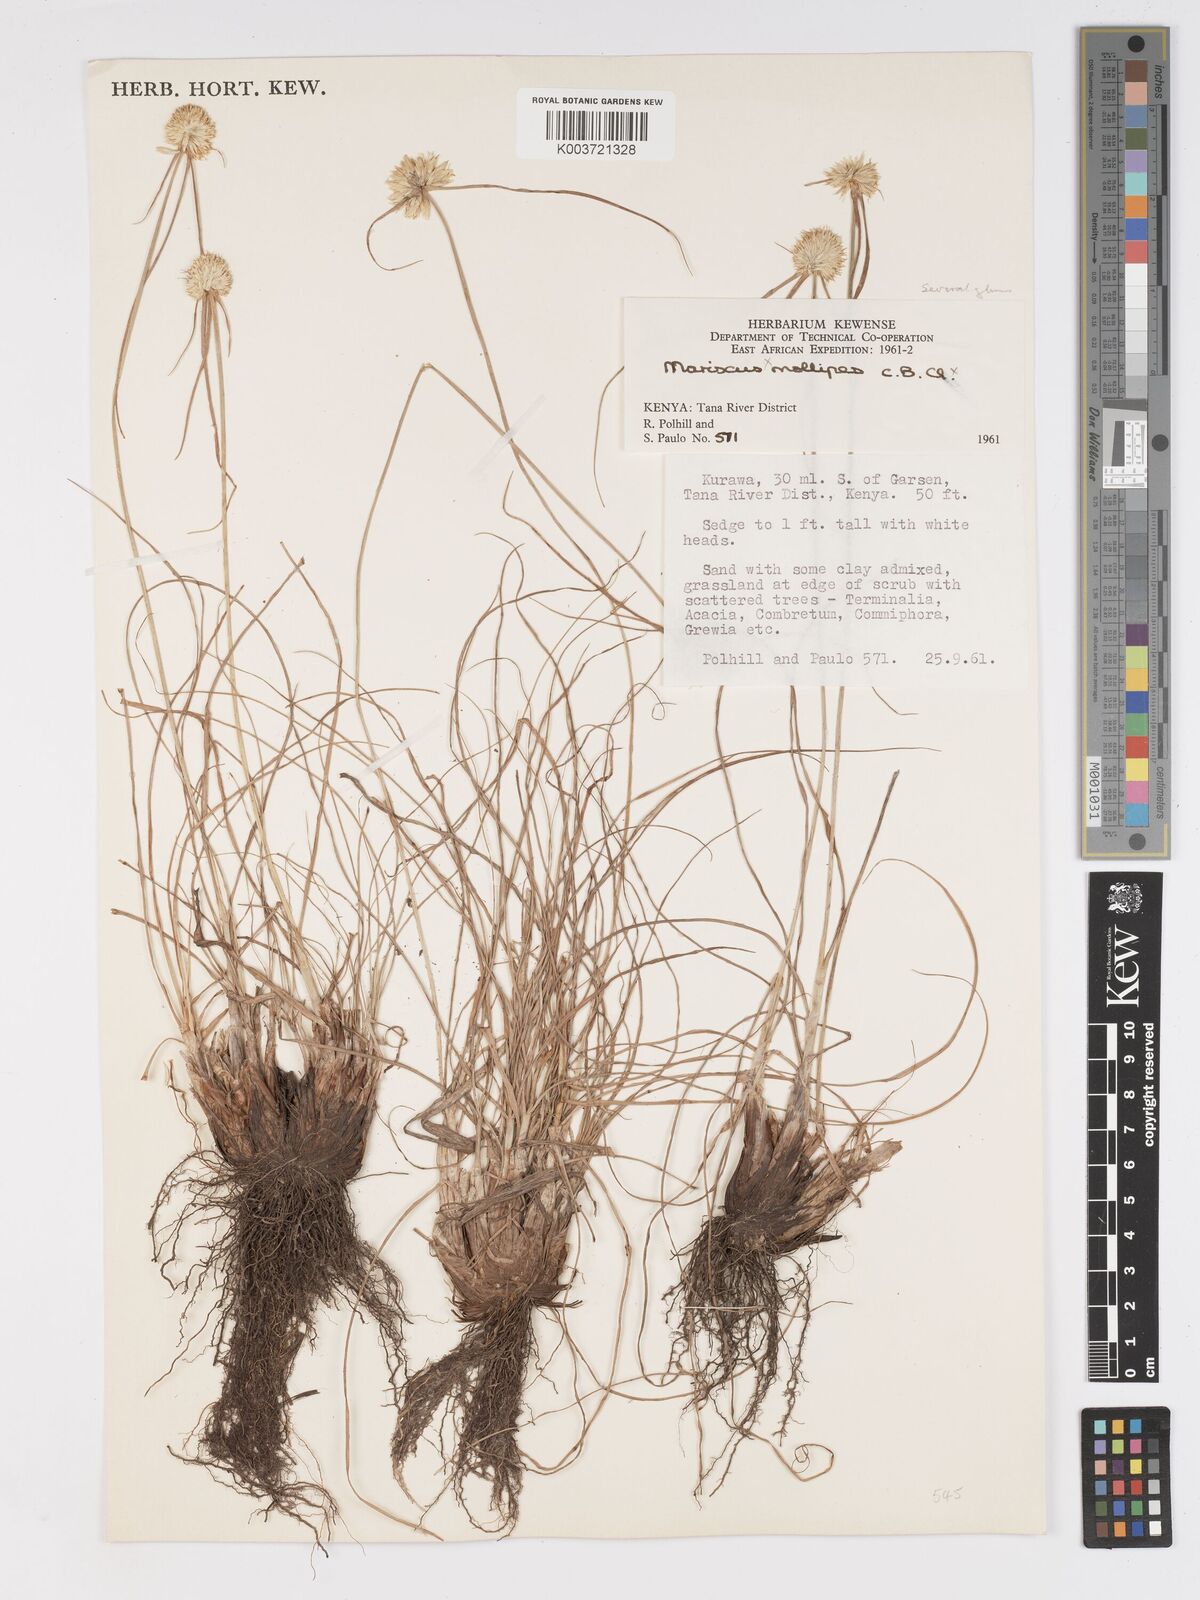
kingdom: Plantae
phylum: Tracheophyta
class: Liliopsida
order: Poales
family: Cyperaceae
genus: Cyperus
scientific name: Cyperus mollipes
